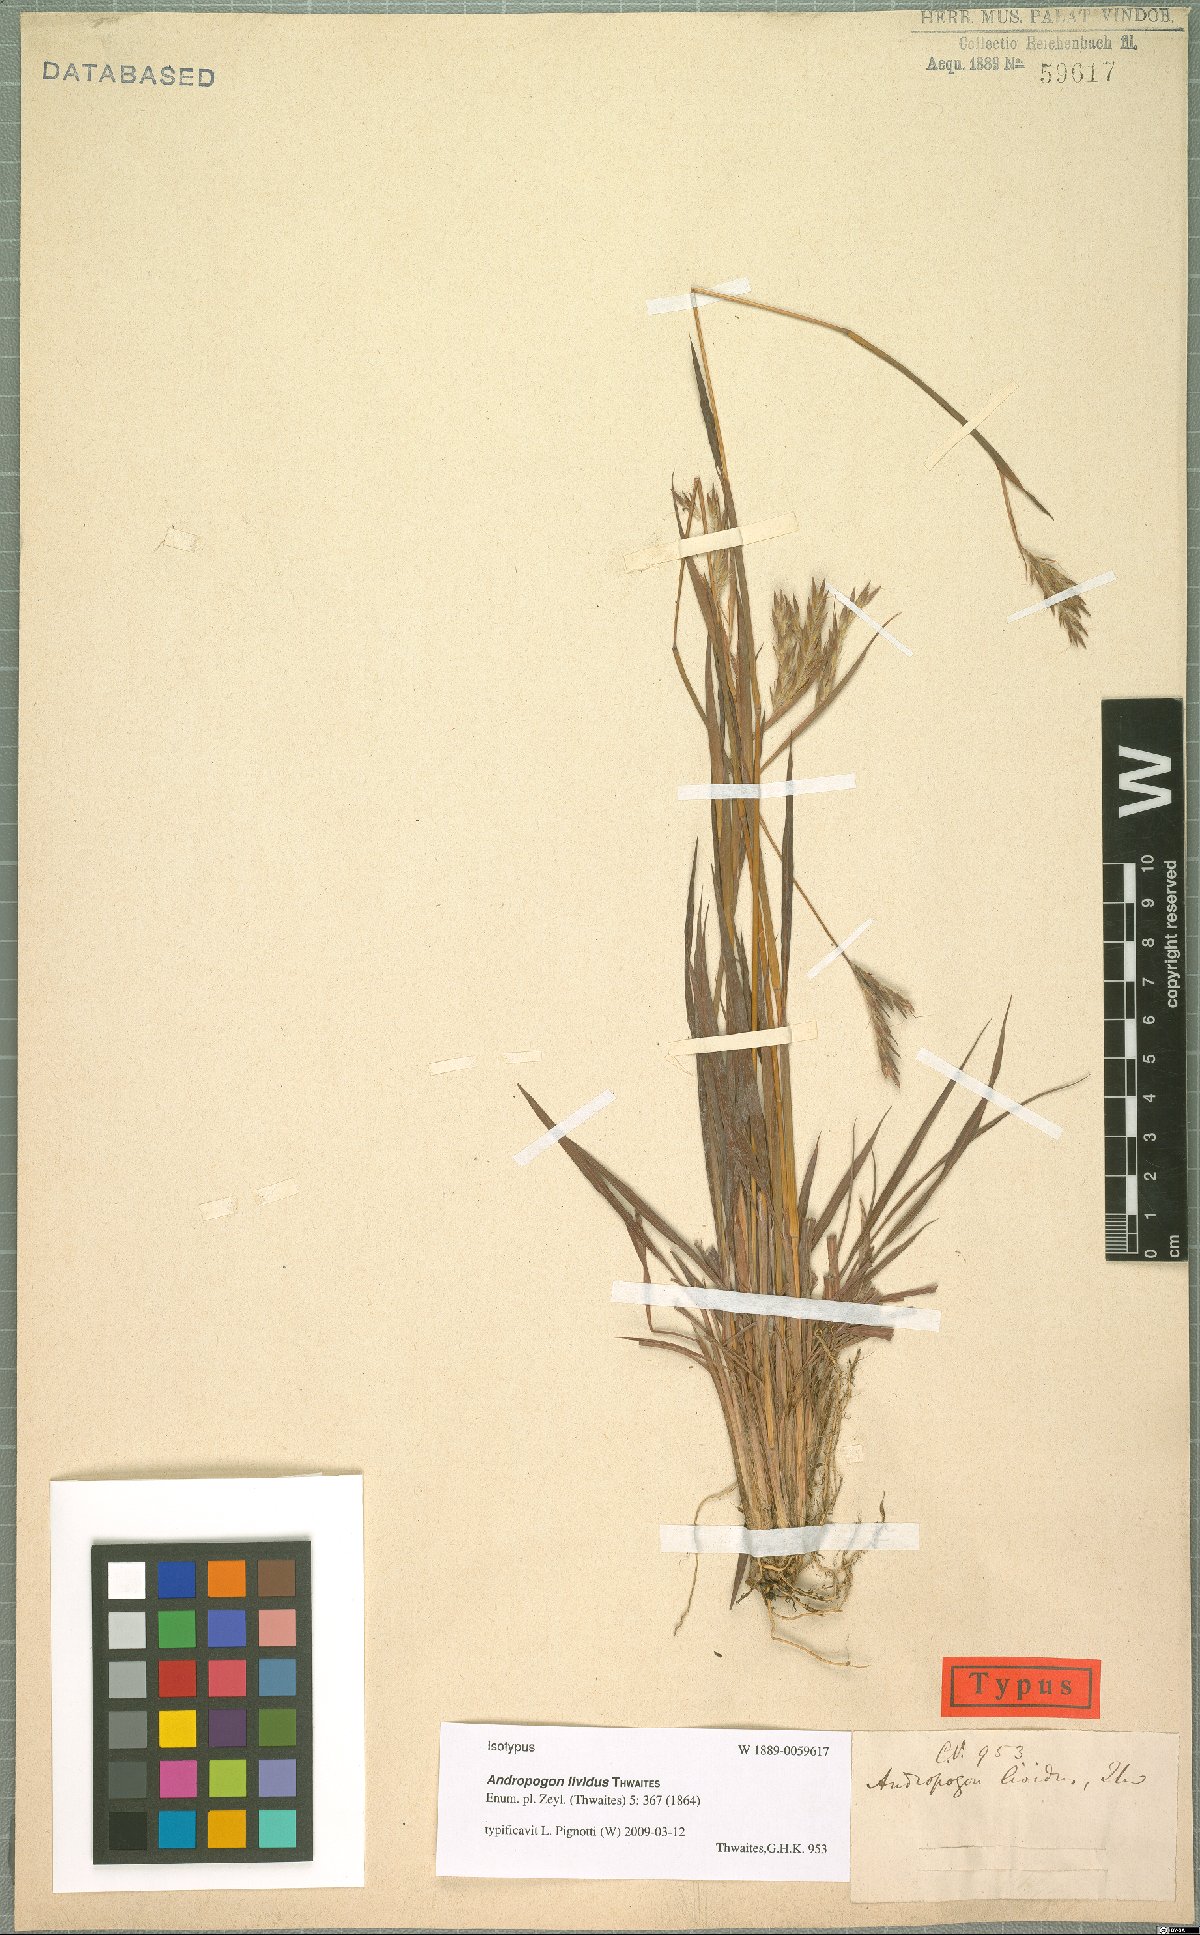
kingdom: Plantae
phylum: Tracheophyta
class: Liliopsida
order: Poales
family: Poaceae
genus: Andropogon
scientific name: Andropogon lividus
